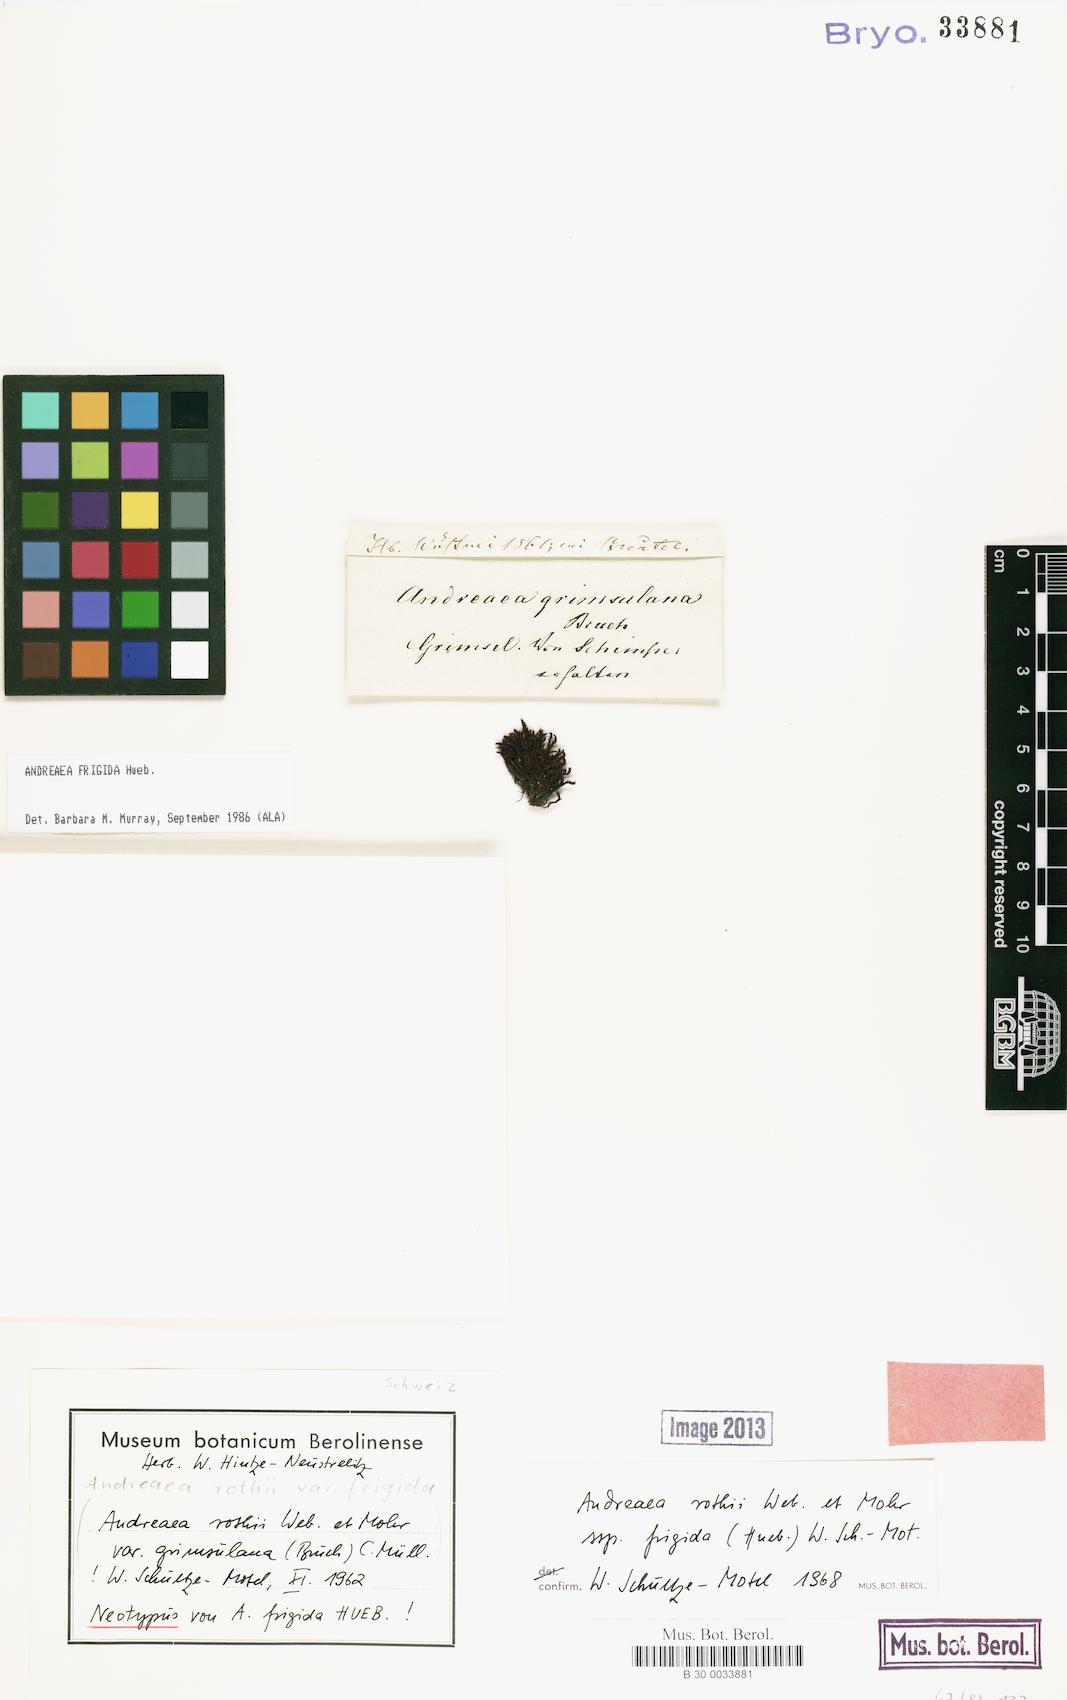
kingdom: Plantae
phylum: Bryophyta
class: Andreaeopsida
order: Andreaeales
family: Andreaeaceae
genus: Andreaea
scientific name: Andreaea frigida
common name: Icy rock-moss
